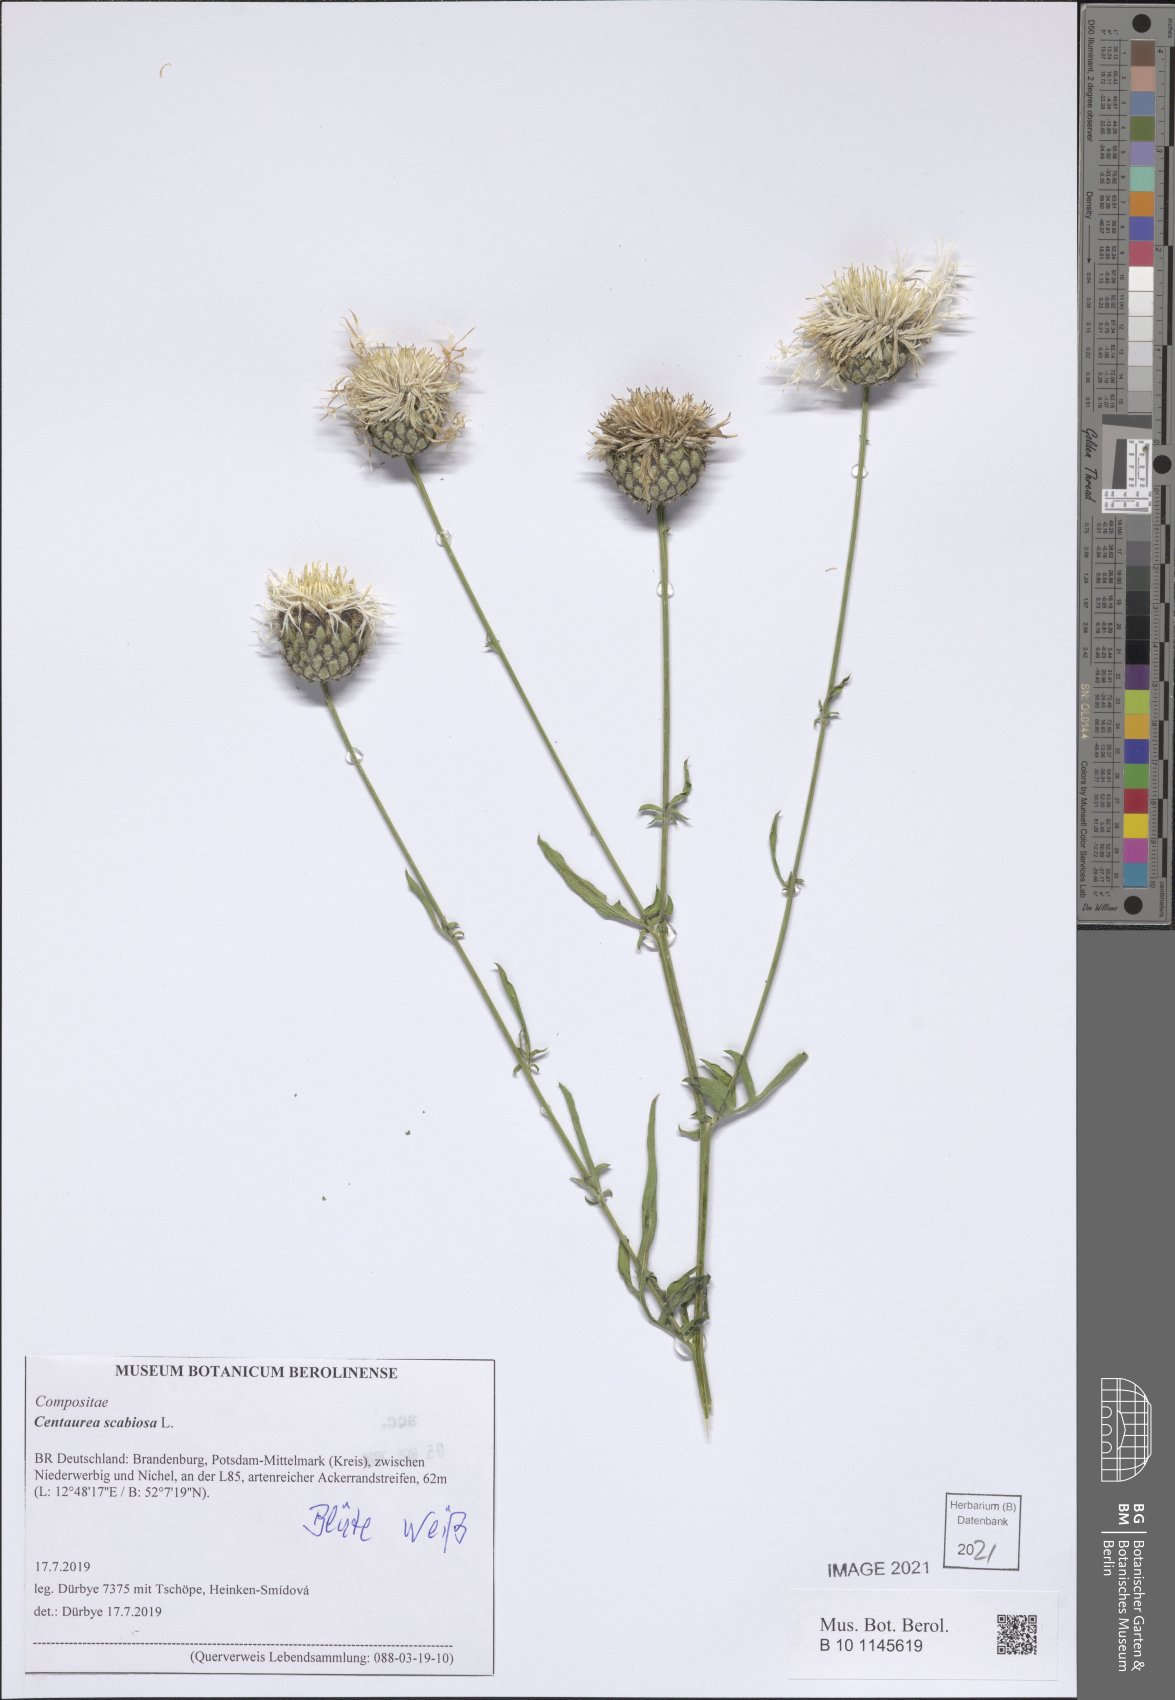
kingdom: Plantae
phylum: Tracheophyta
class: Magnoliopsida
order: Asterales
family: Asteraceae
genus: Centaurea
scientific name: Centaurea scabiosa
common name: Greater knapweed
